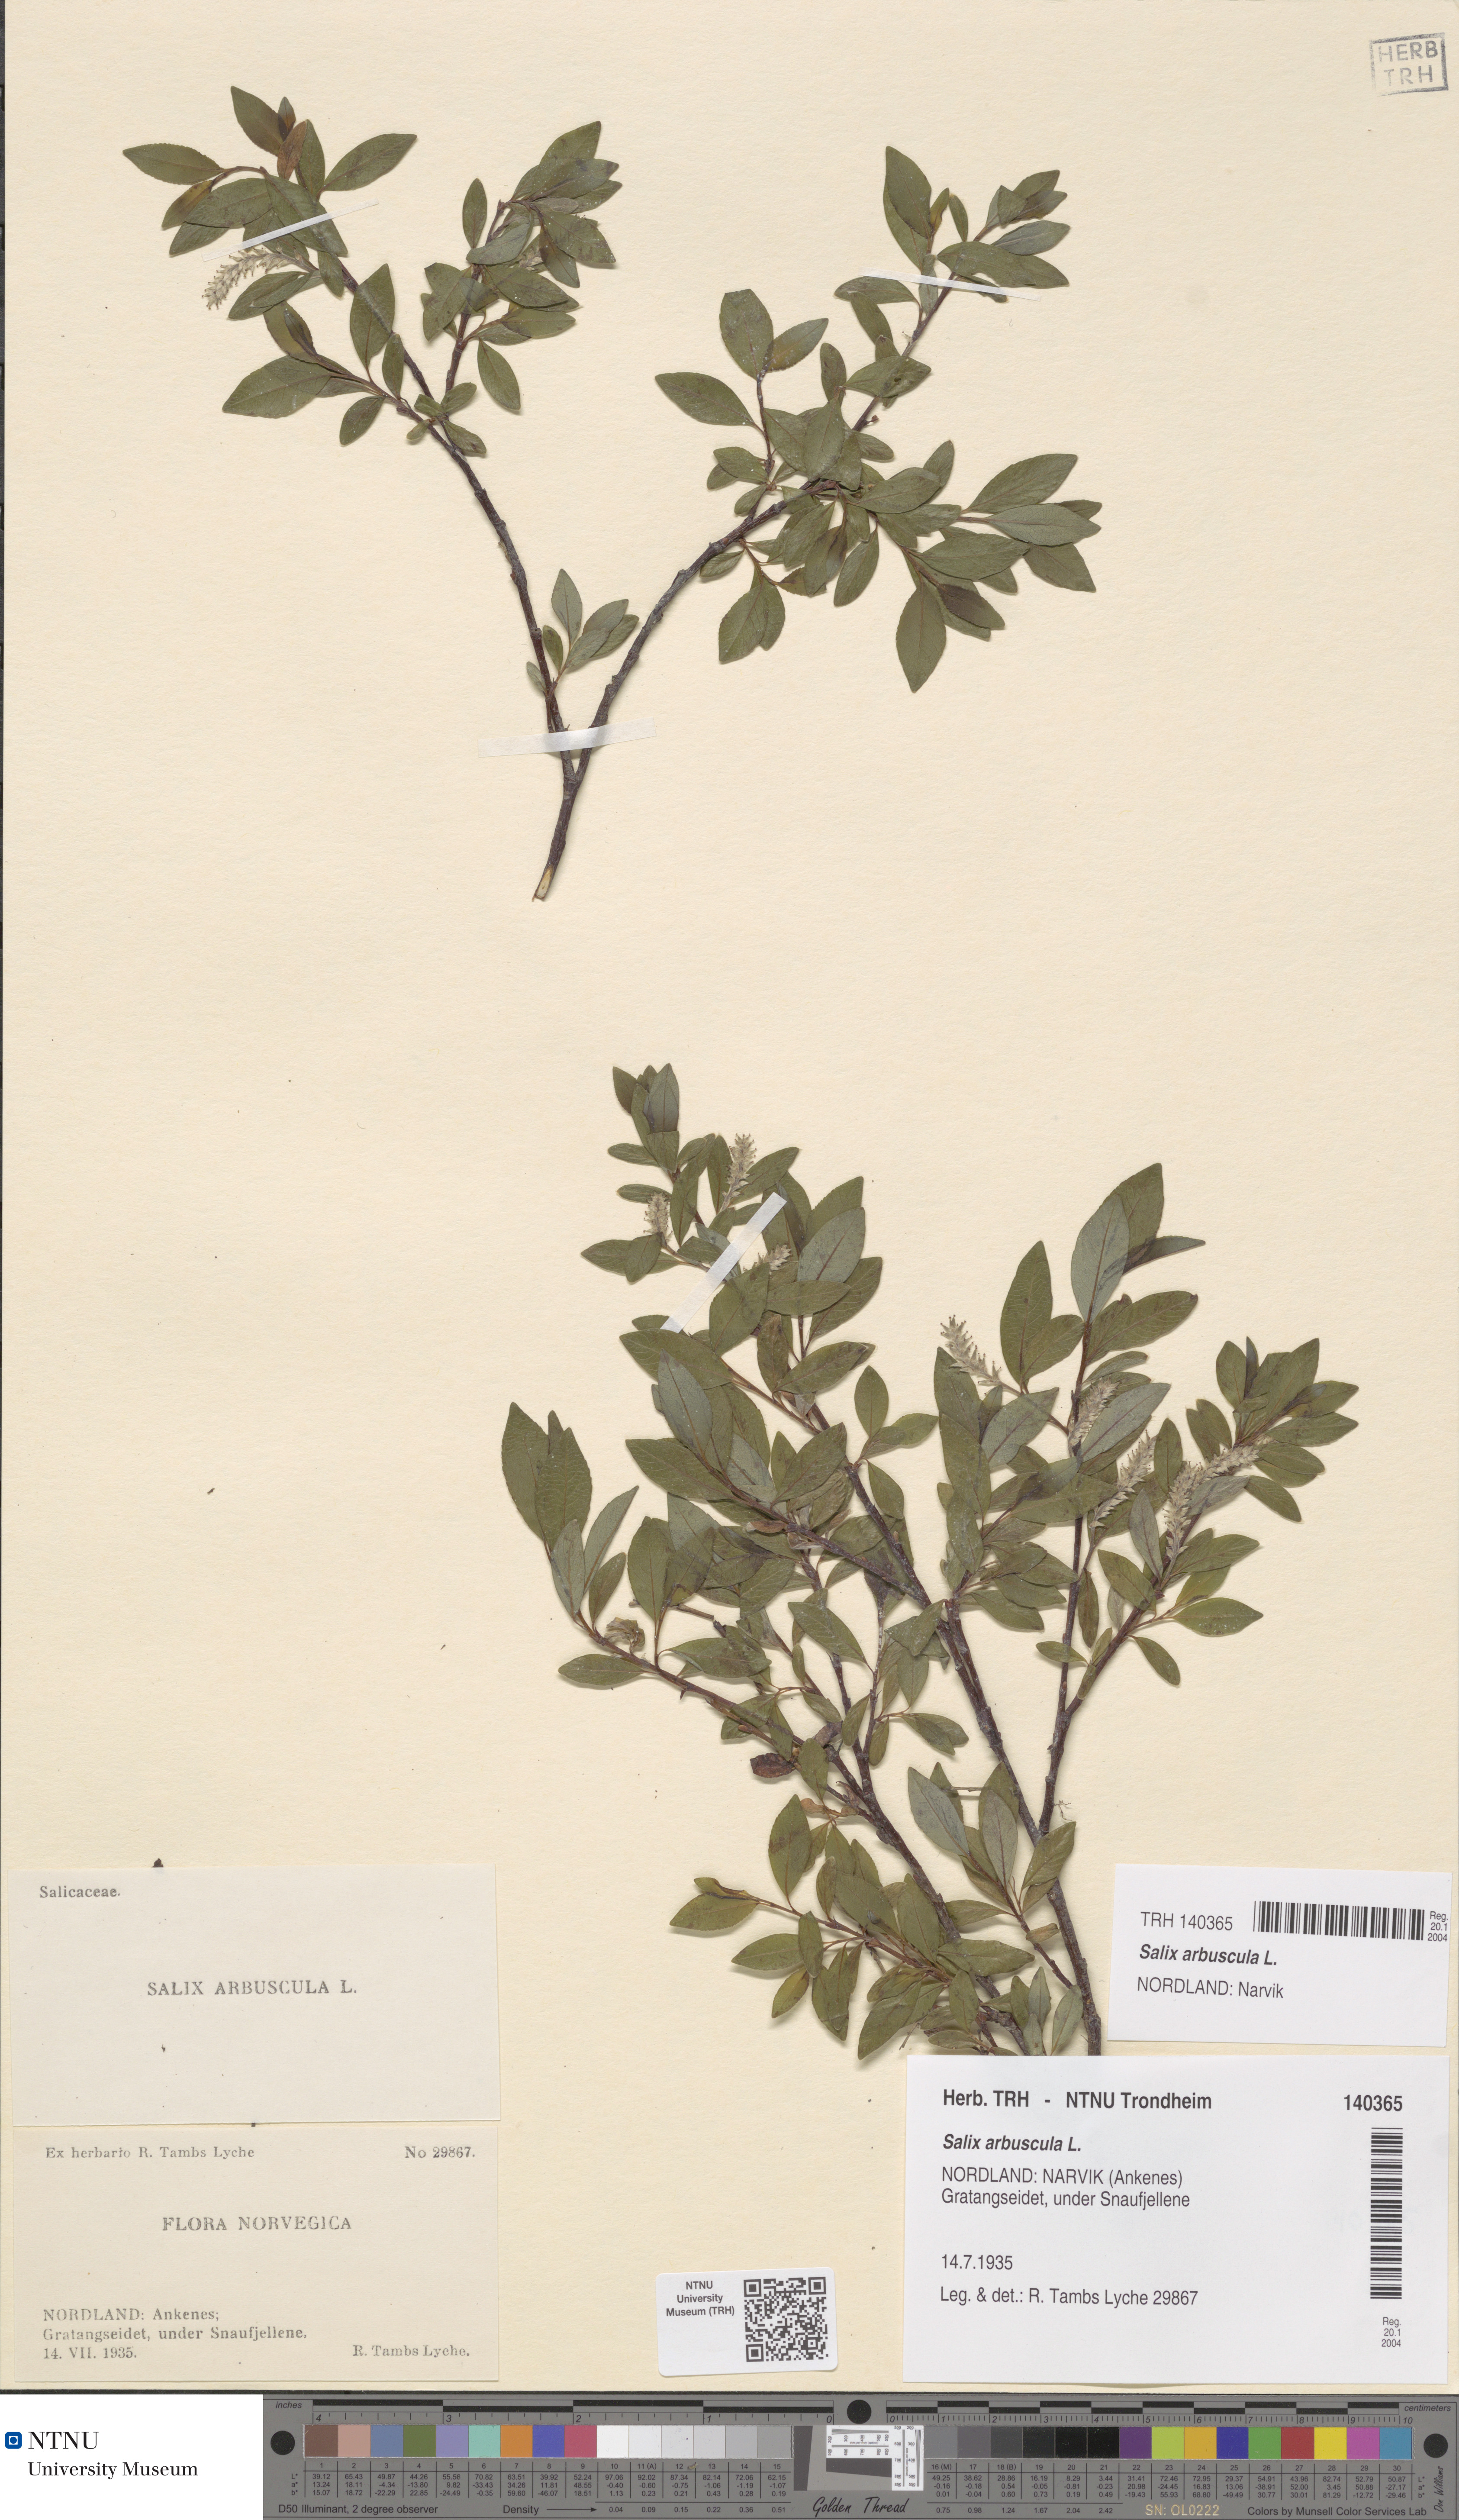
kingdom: Plantae
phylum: Tracheophyta
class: Magnoliopsida
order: Malpighiales
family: Salicaceae
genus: Salix
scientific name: Salix arbuscula
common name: Mountain willow
